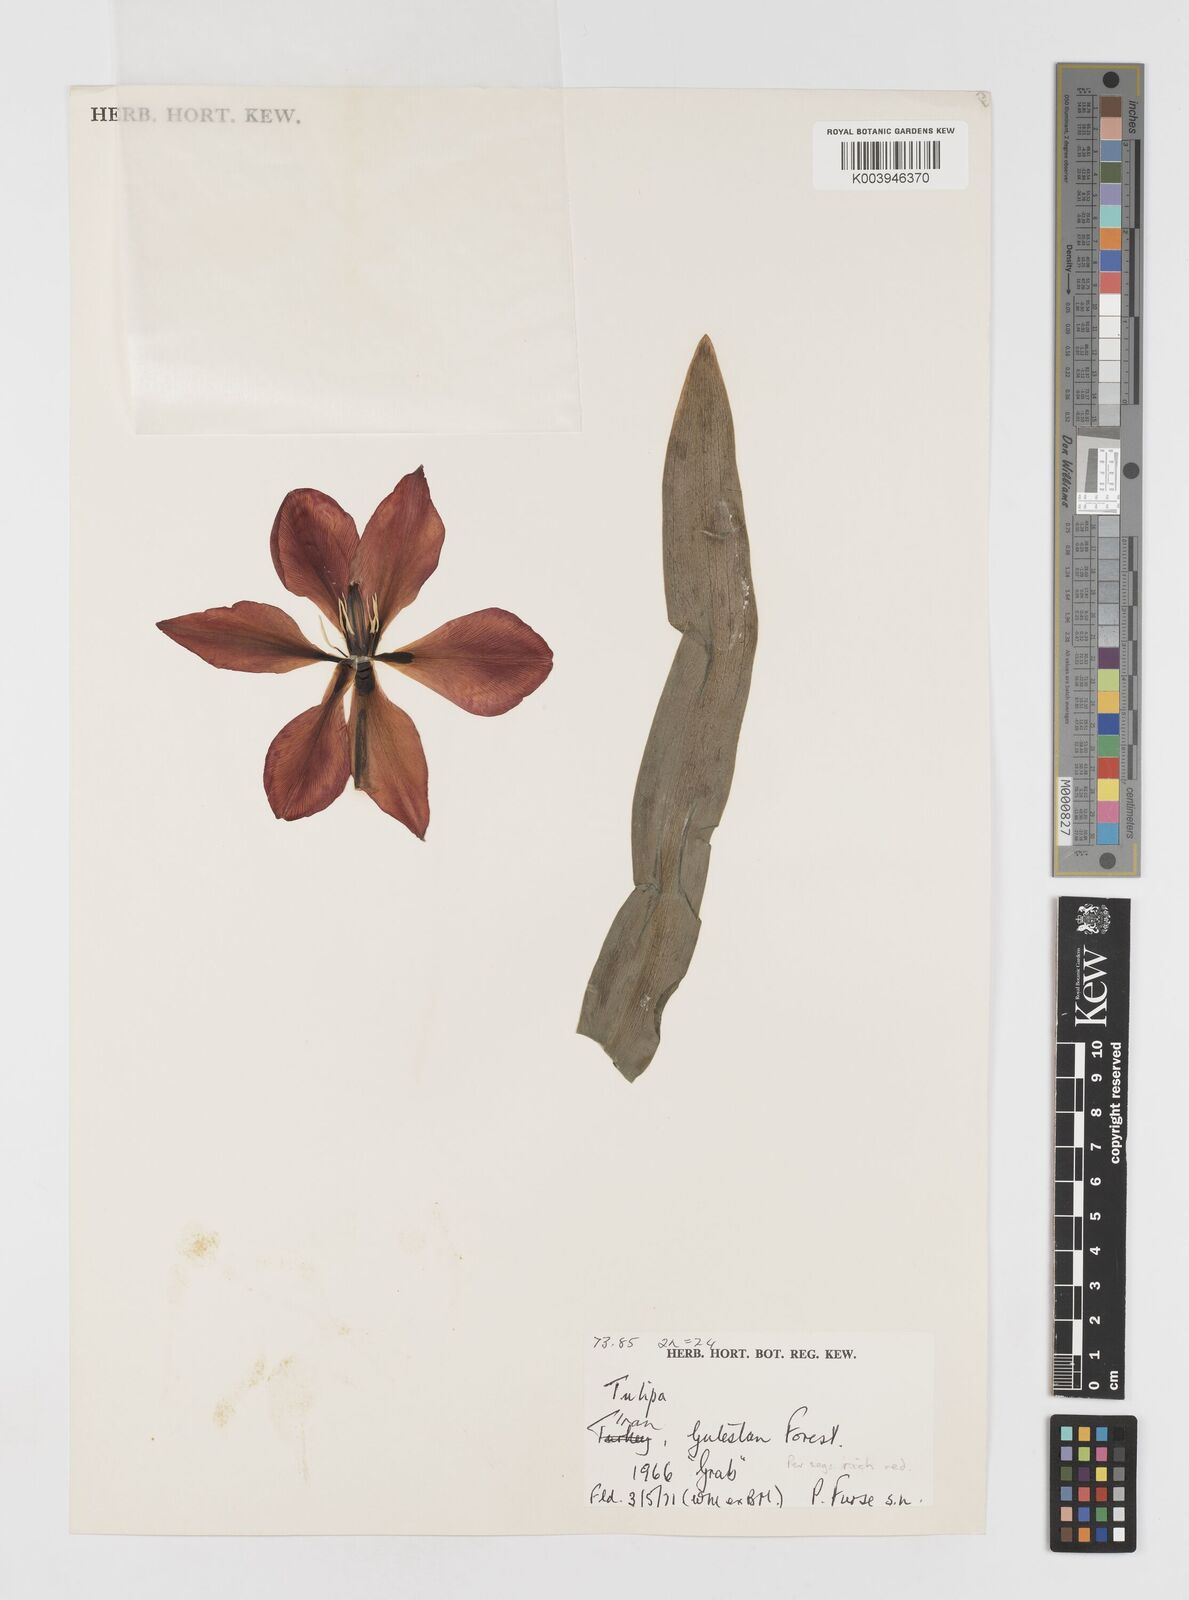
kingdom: Plantae
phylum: Tracheophyta
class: Liliopsida
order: Liliales
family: Liliaceae
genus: Tulipa
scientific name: Tulipa hoogiana
